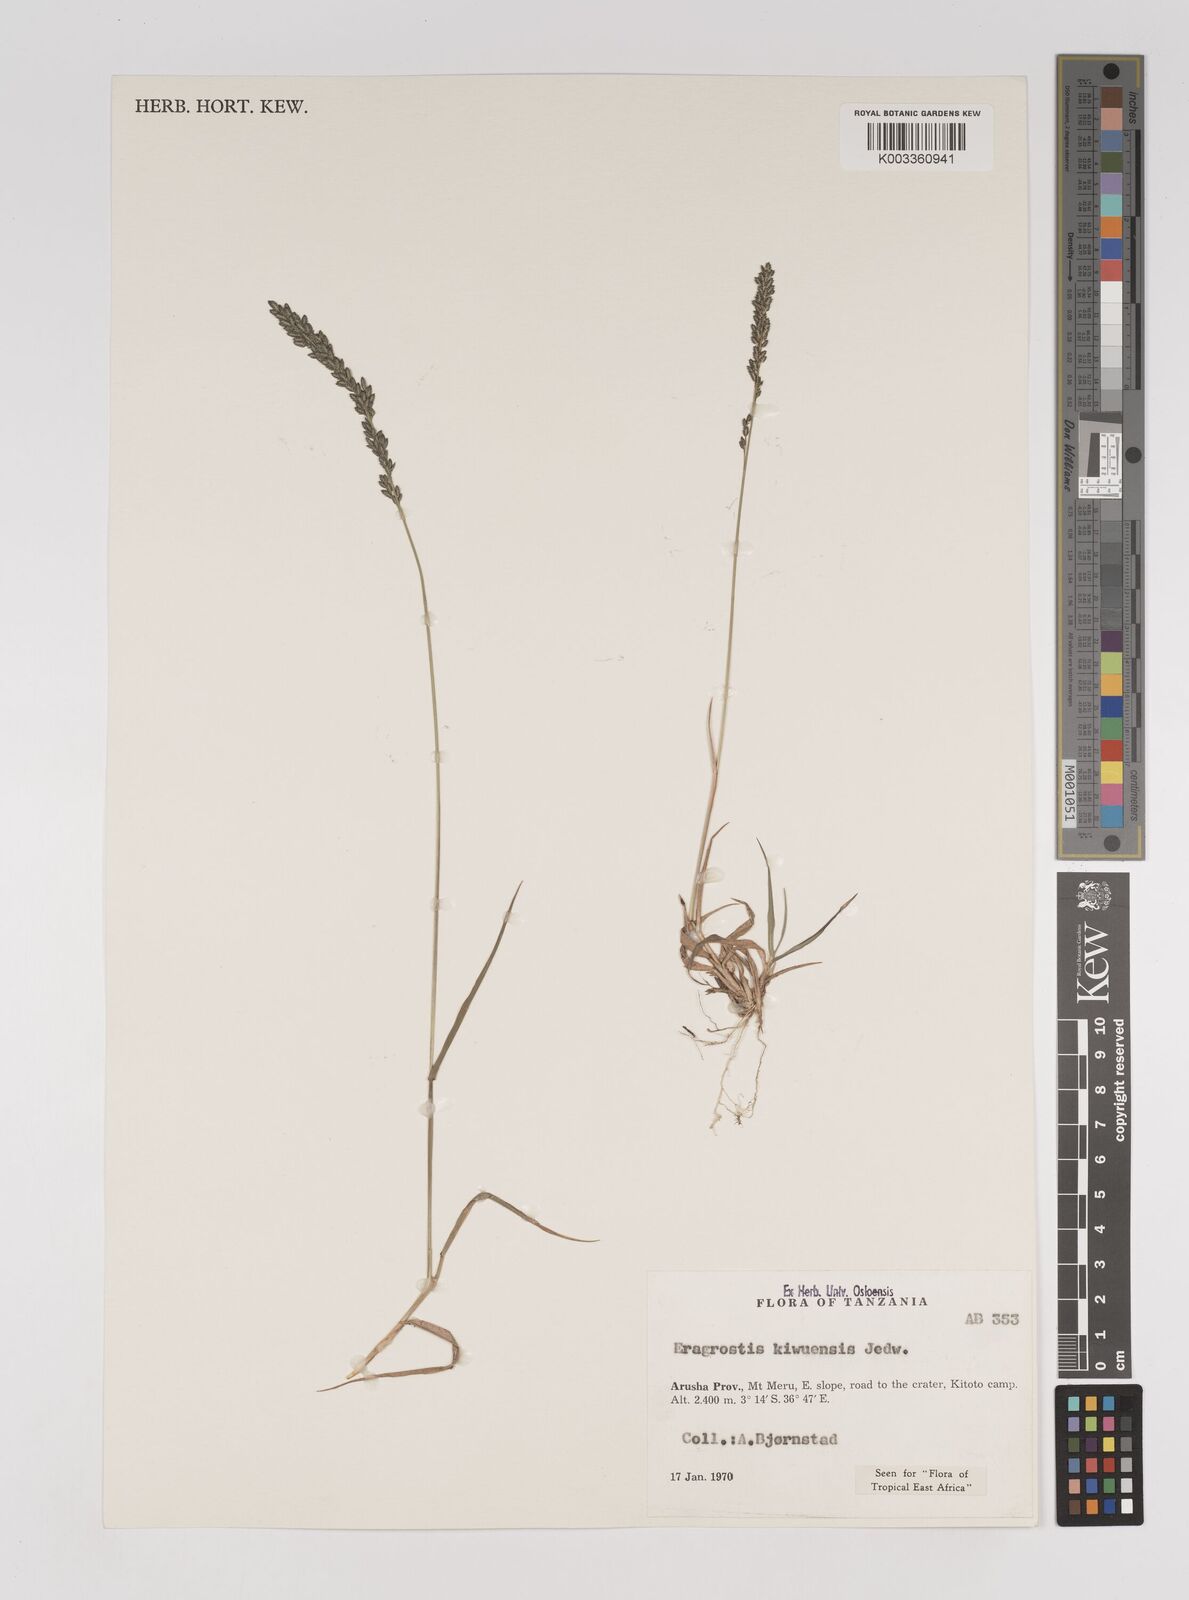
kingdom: Plantae
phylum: Tracheophyta
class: Liliopsida
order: Poales
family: Poaceae
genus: Eragrostis
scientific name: Eragrostis schweinfurthii
